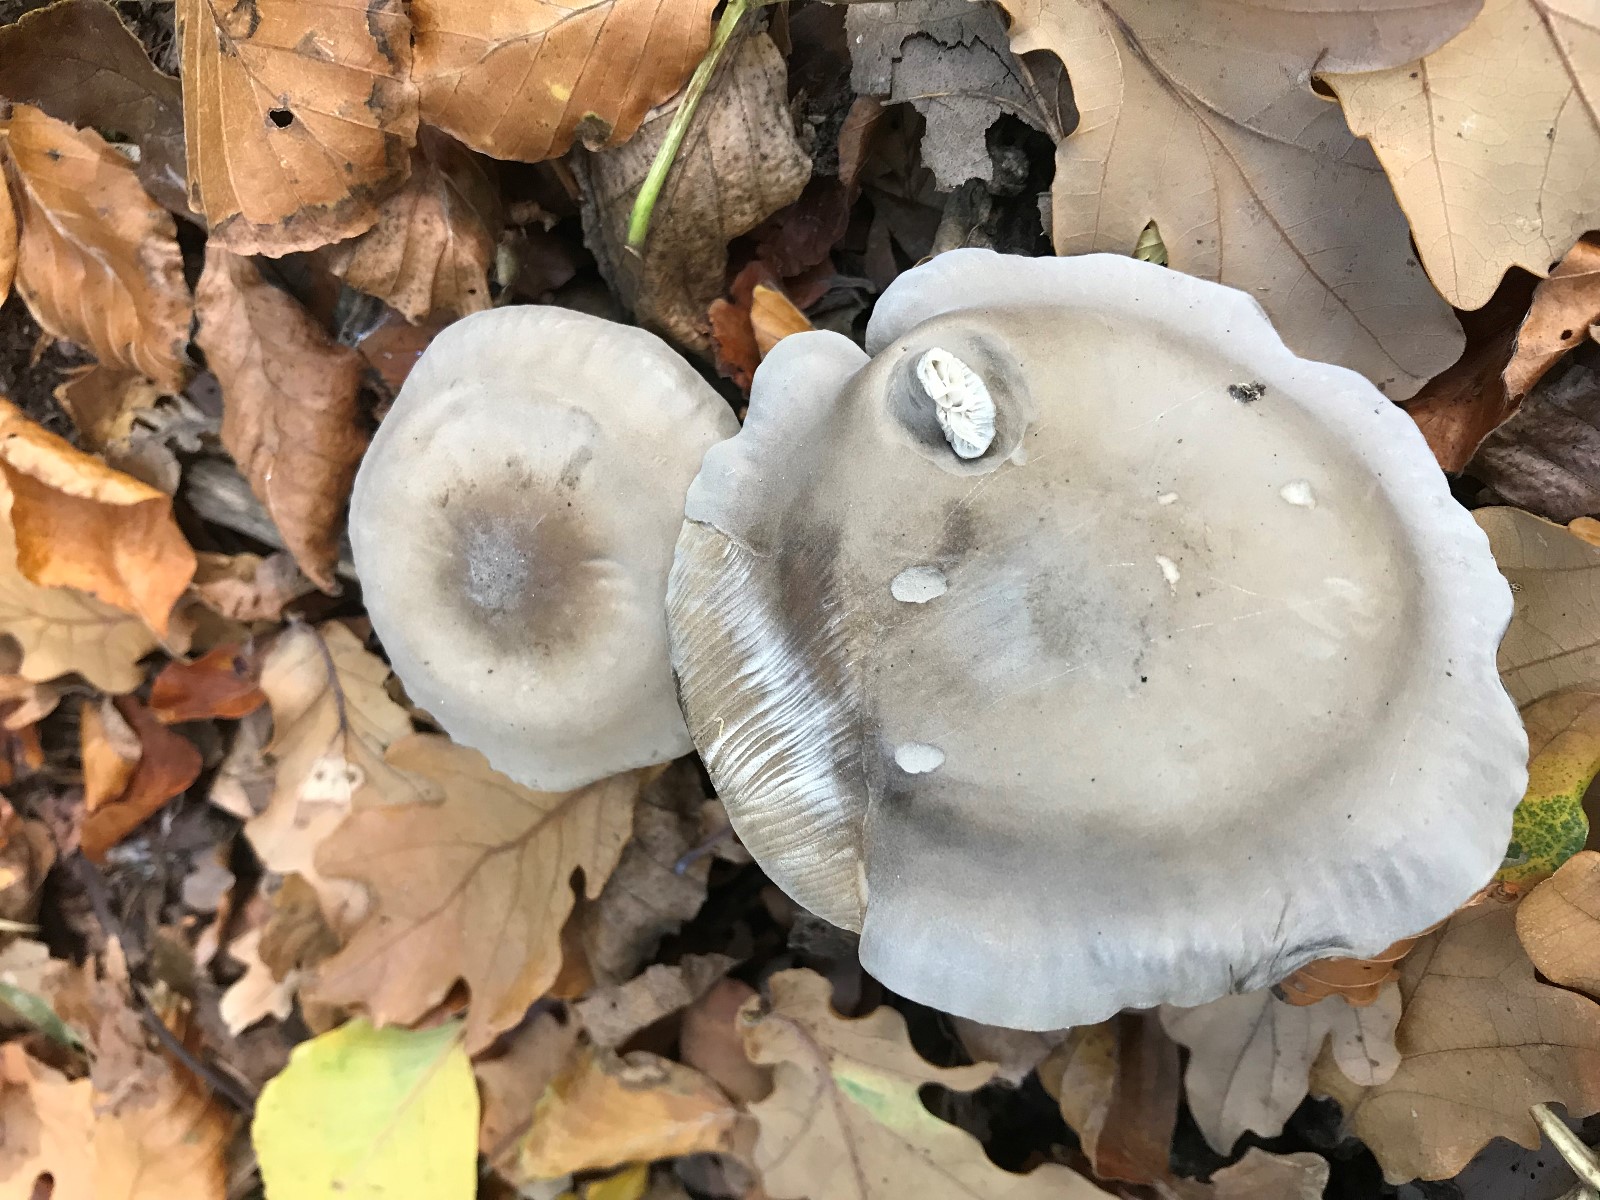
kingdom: Fungi
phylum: Basidiomycota
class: Agaricomycetes
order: Agaricales
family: Tricholomataceae
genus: Melanoleuca
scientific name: Melanoleuca
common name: munkehat
